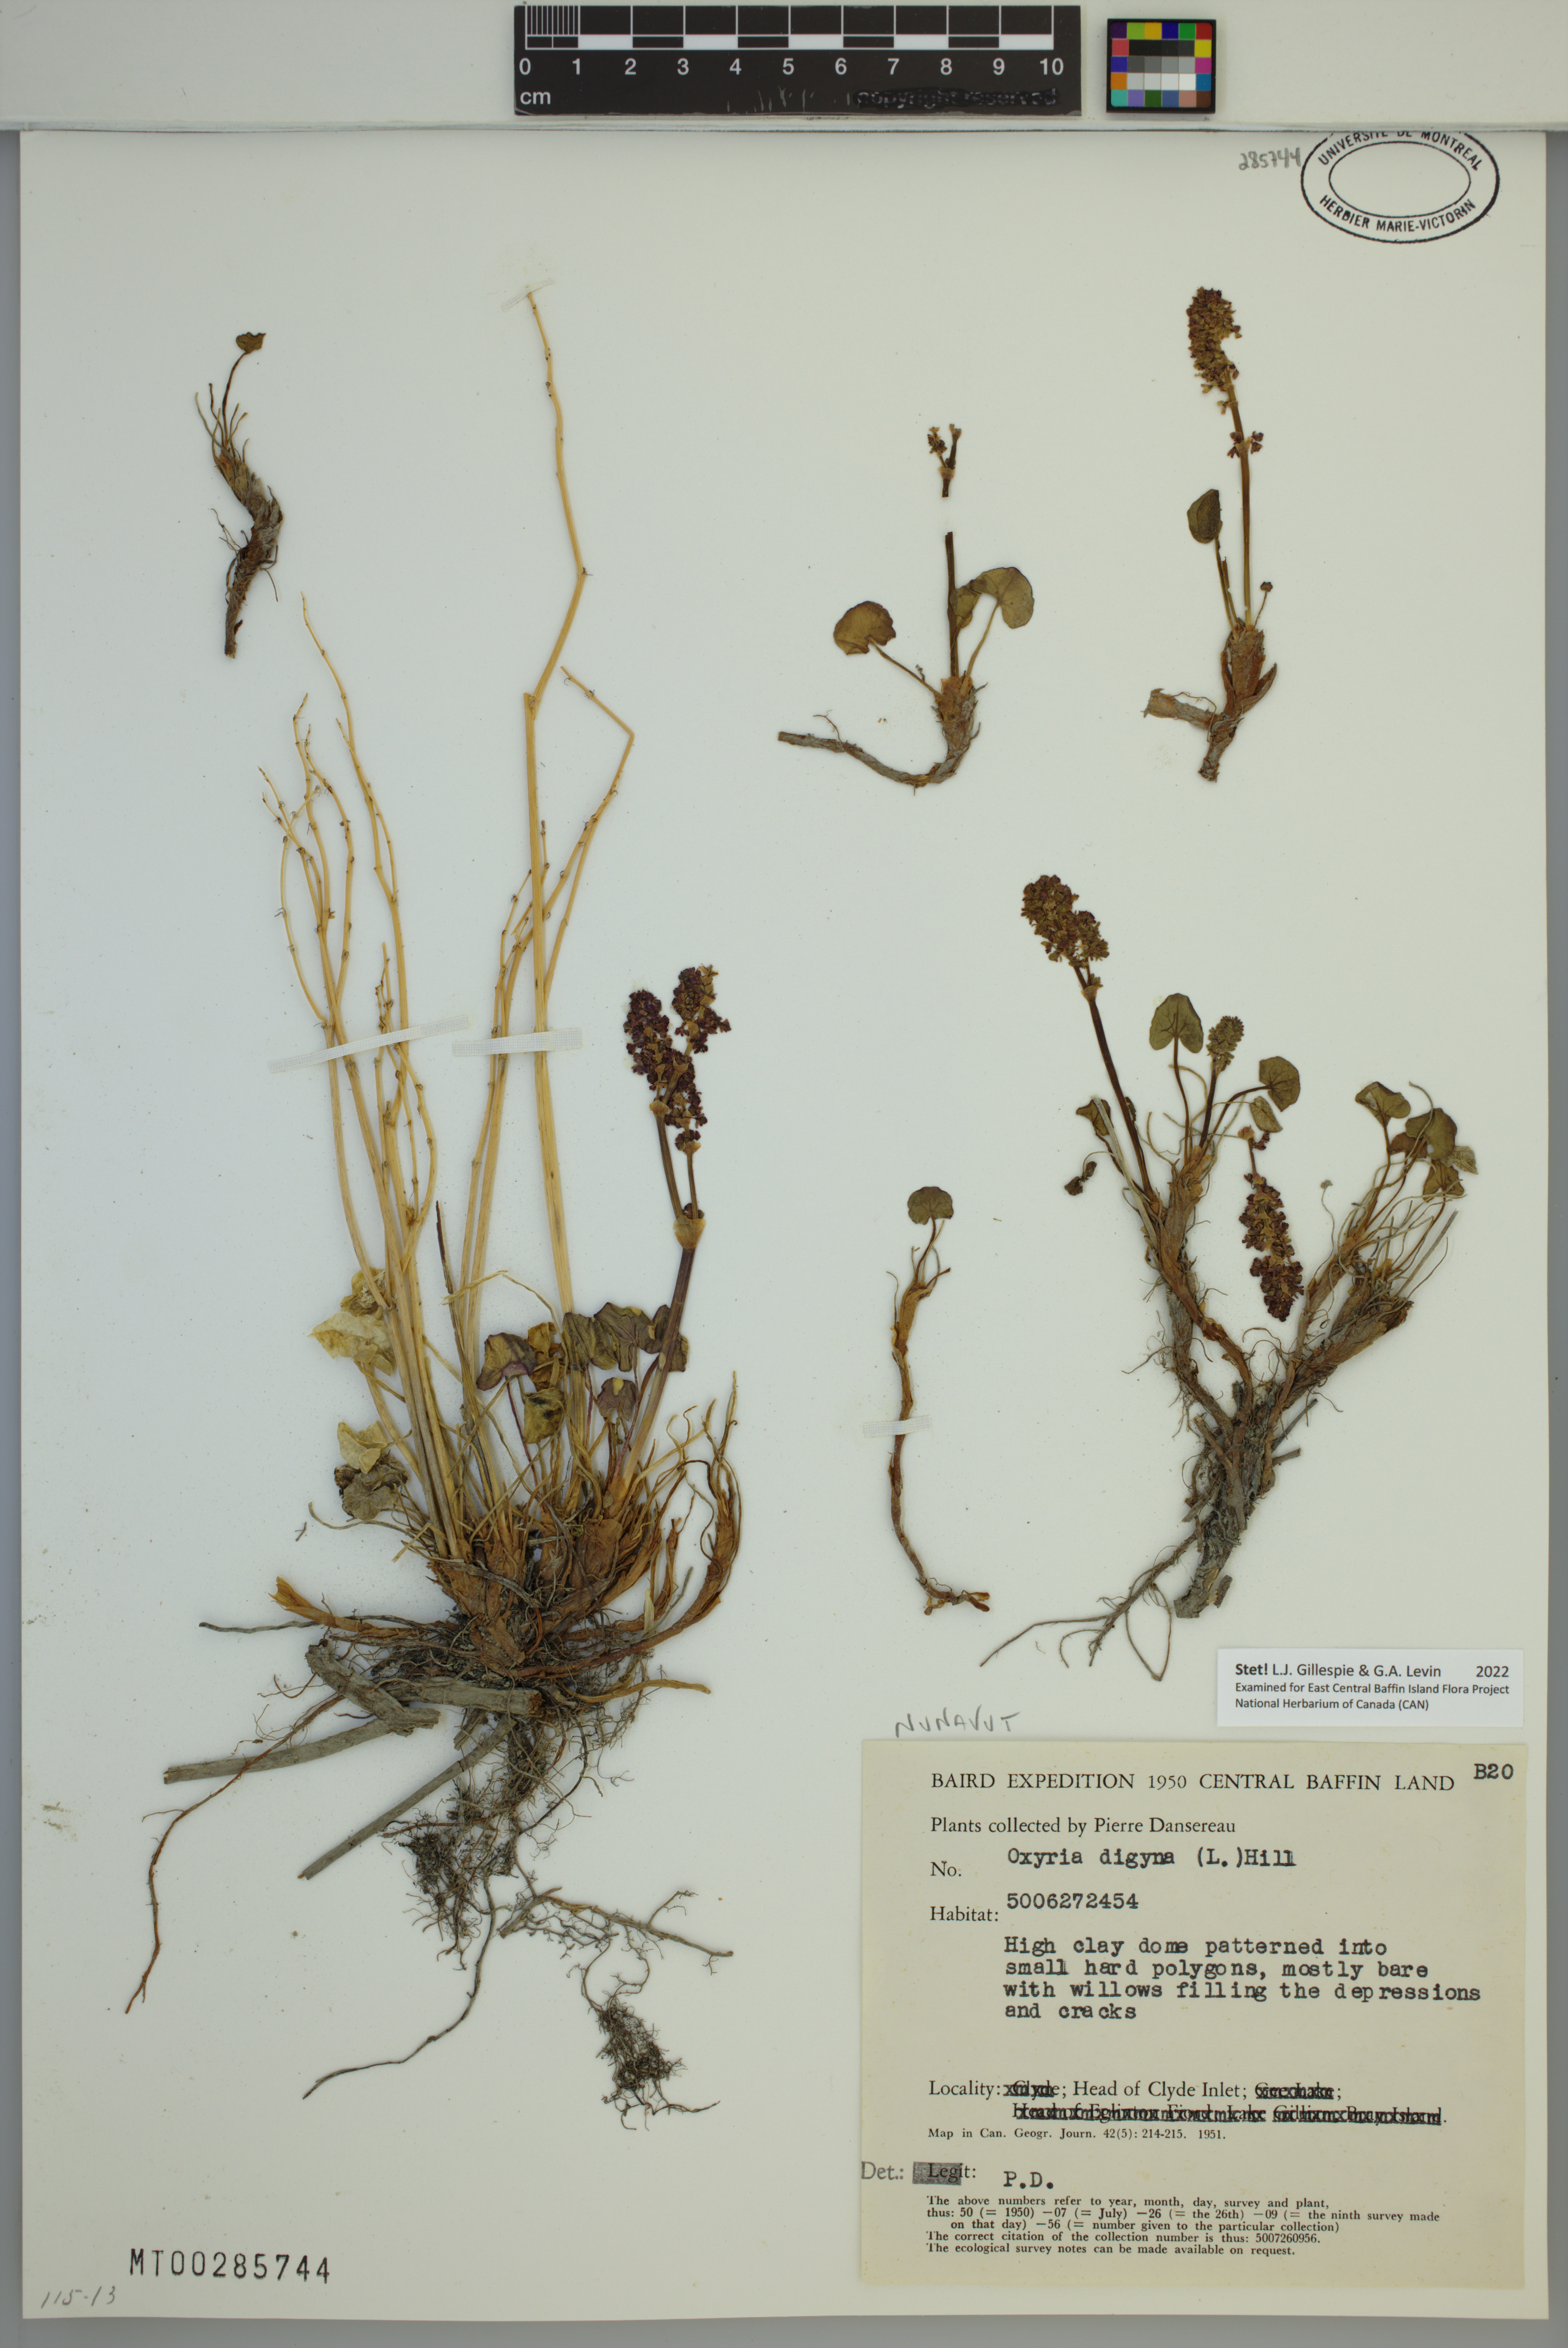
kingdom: Plantae
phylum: Tracheophyta
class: Magnoliopsida
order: Caryophyllales
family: Polygonaceae
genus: Oxyria
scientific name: Oxyria digyna
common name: Alpine mountain-sorrel
